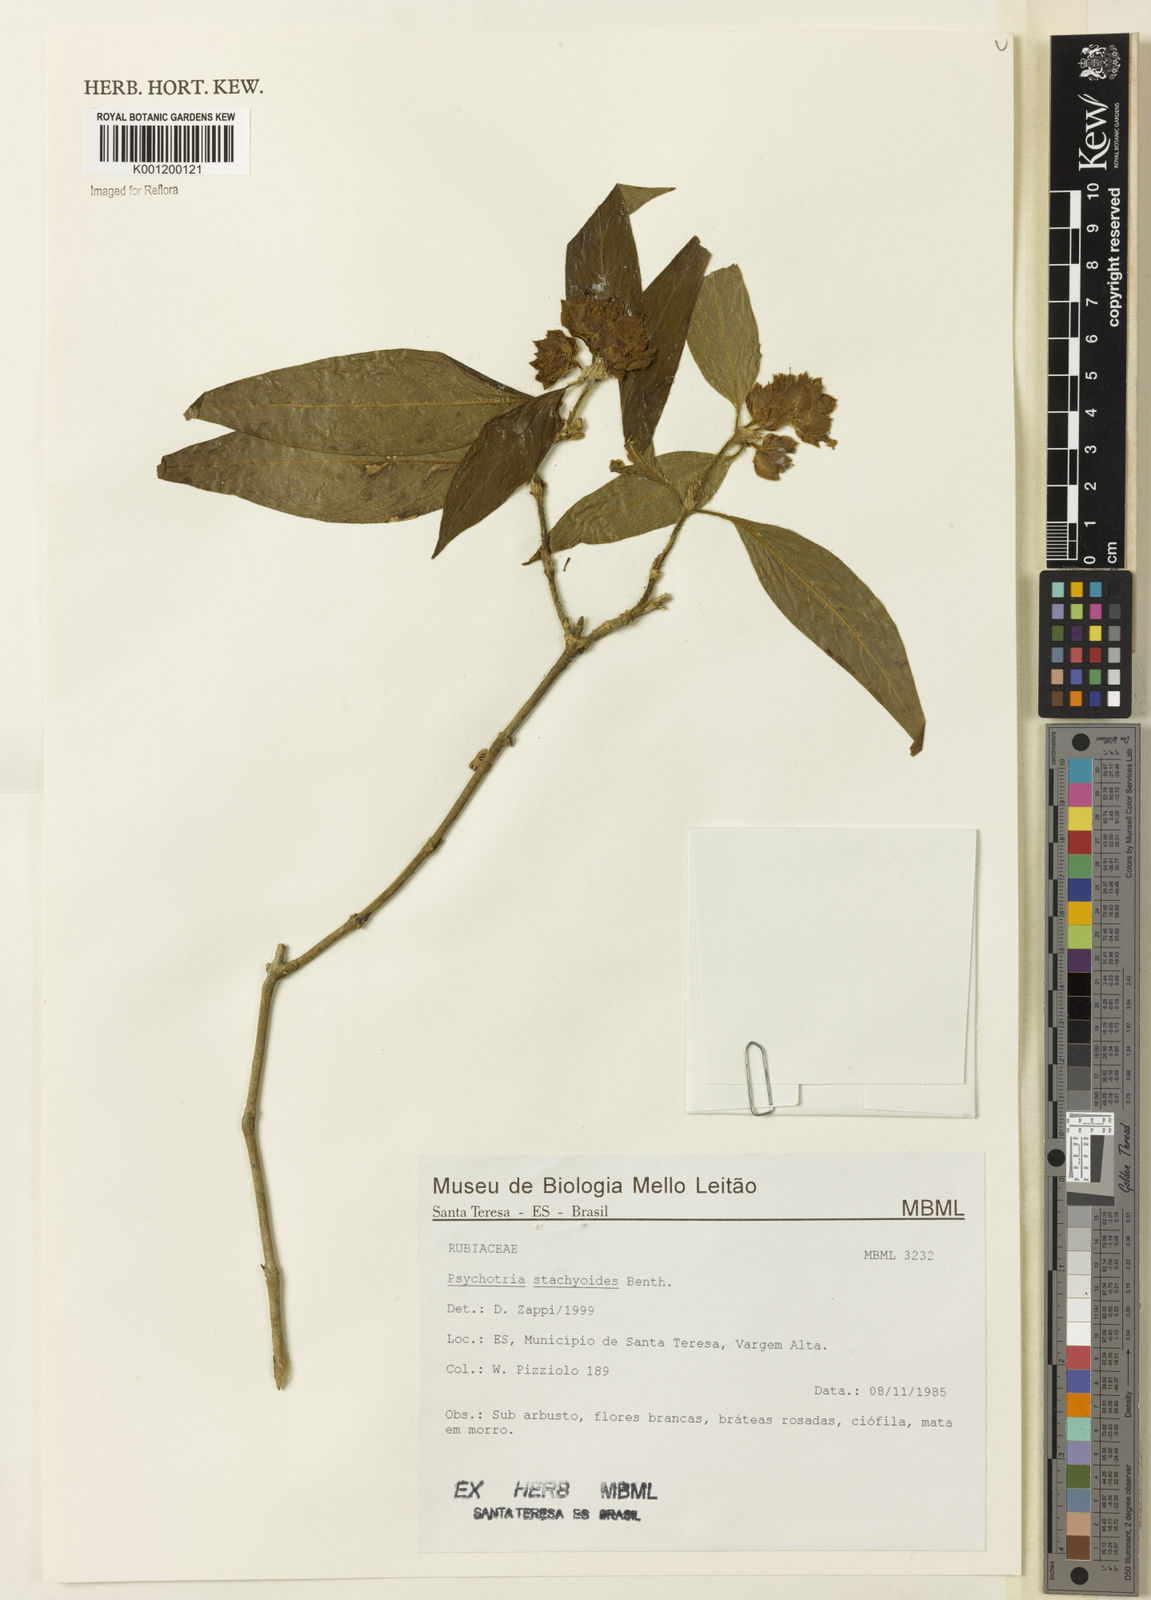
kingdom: Plantae
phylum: Tracheophyta
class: Magnoliopsida
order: Gentianales
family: Rubiaceae
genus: Psychotria
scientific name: Psychotria stachyoides
